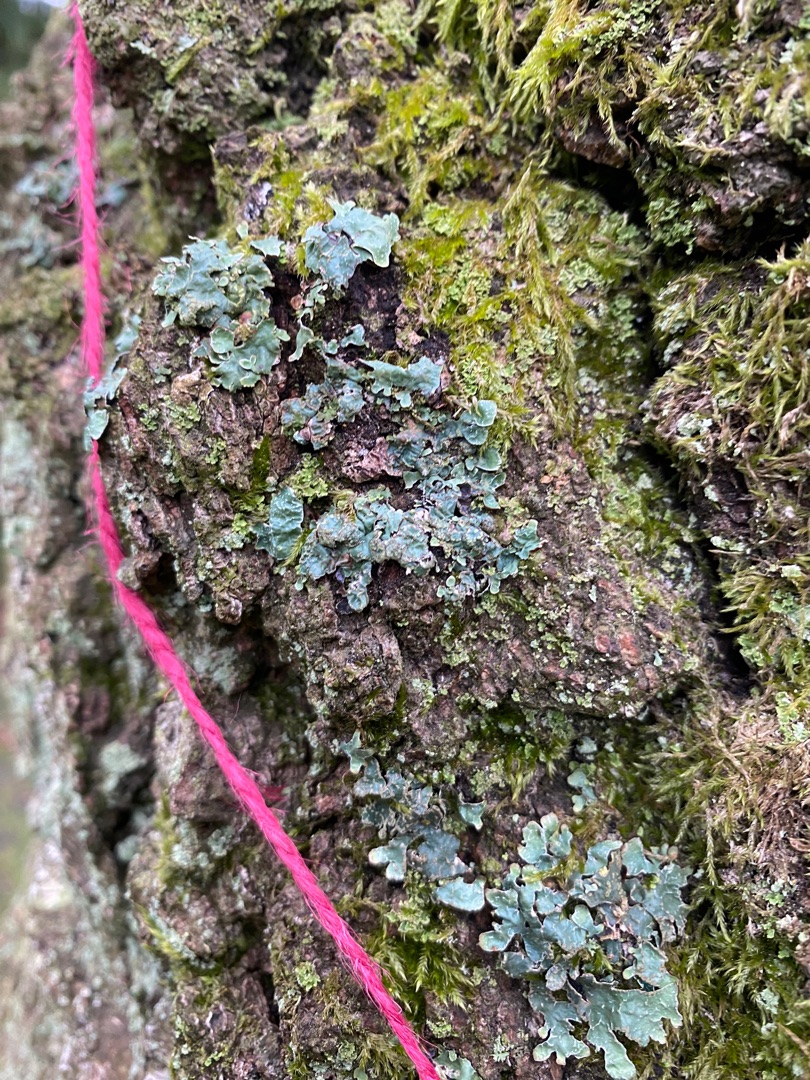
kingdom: Fungi
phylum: Ascomycota
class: Lecanoromycetes
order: Lecanorales
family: Parmeliaceae
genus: Parmelia
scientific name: Parmelia sulcata
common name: Rynket skållav
